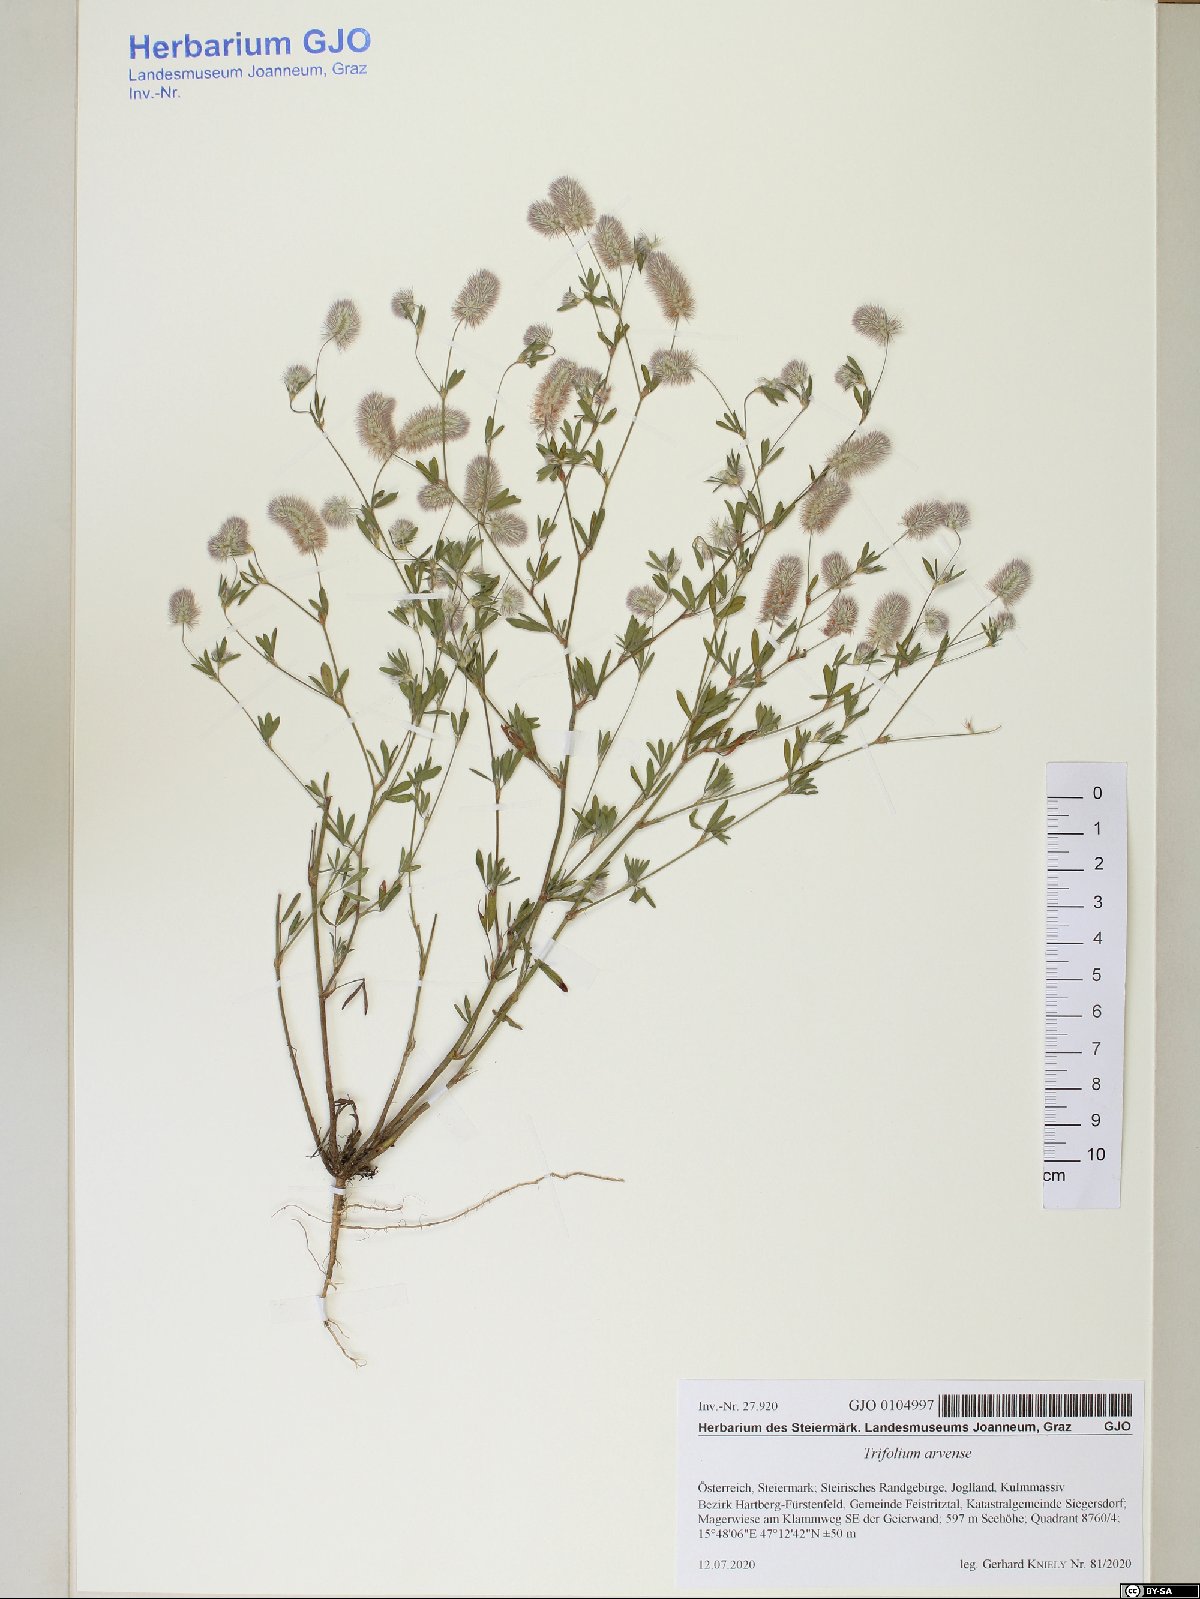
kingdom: Plantae
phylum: Tracheophyta
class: Magnoliopsida
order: Fabales
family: Fabaceae
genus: Trifolium
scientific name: Trifolium arvense
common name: Hare's-foot clover
